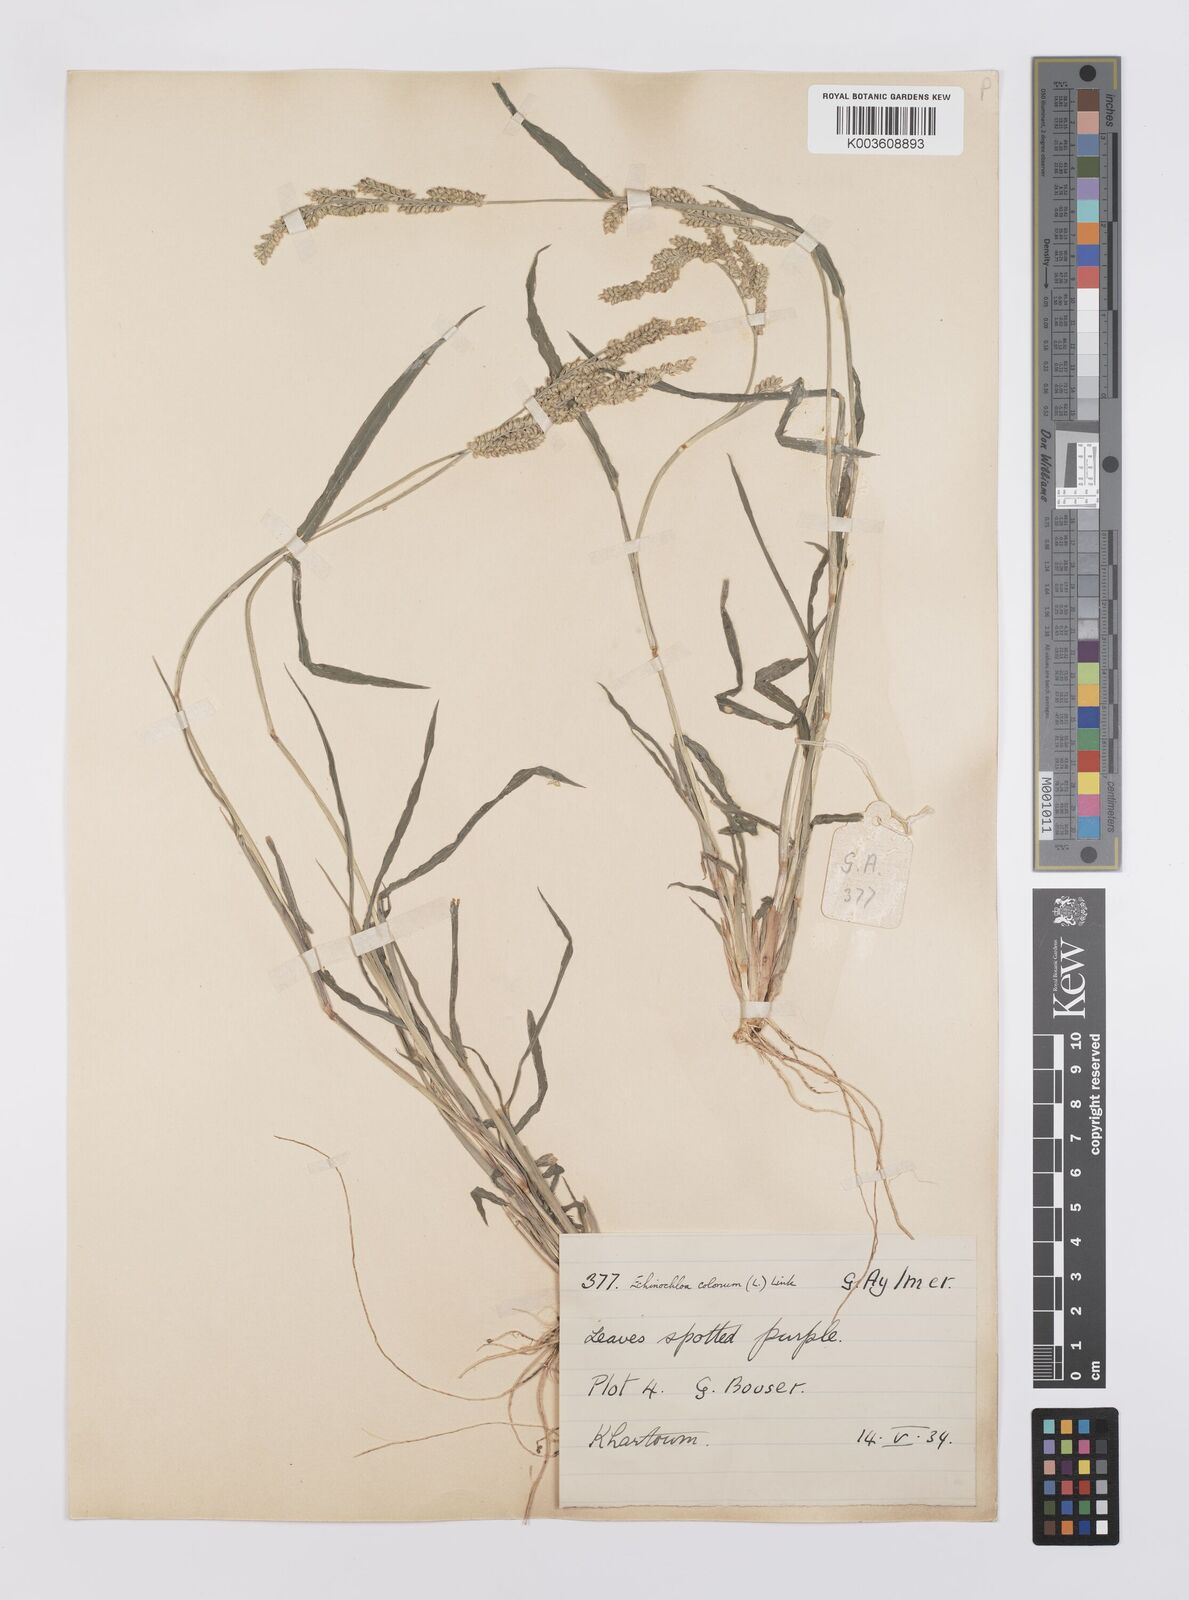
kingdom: Plantae
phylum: Tracheophyta
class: Liliopsida
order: Poales
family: Poaceae
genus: Echinochloa
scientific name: Echinochloa colonum
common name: Jungle rice
